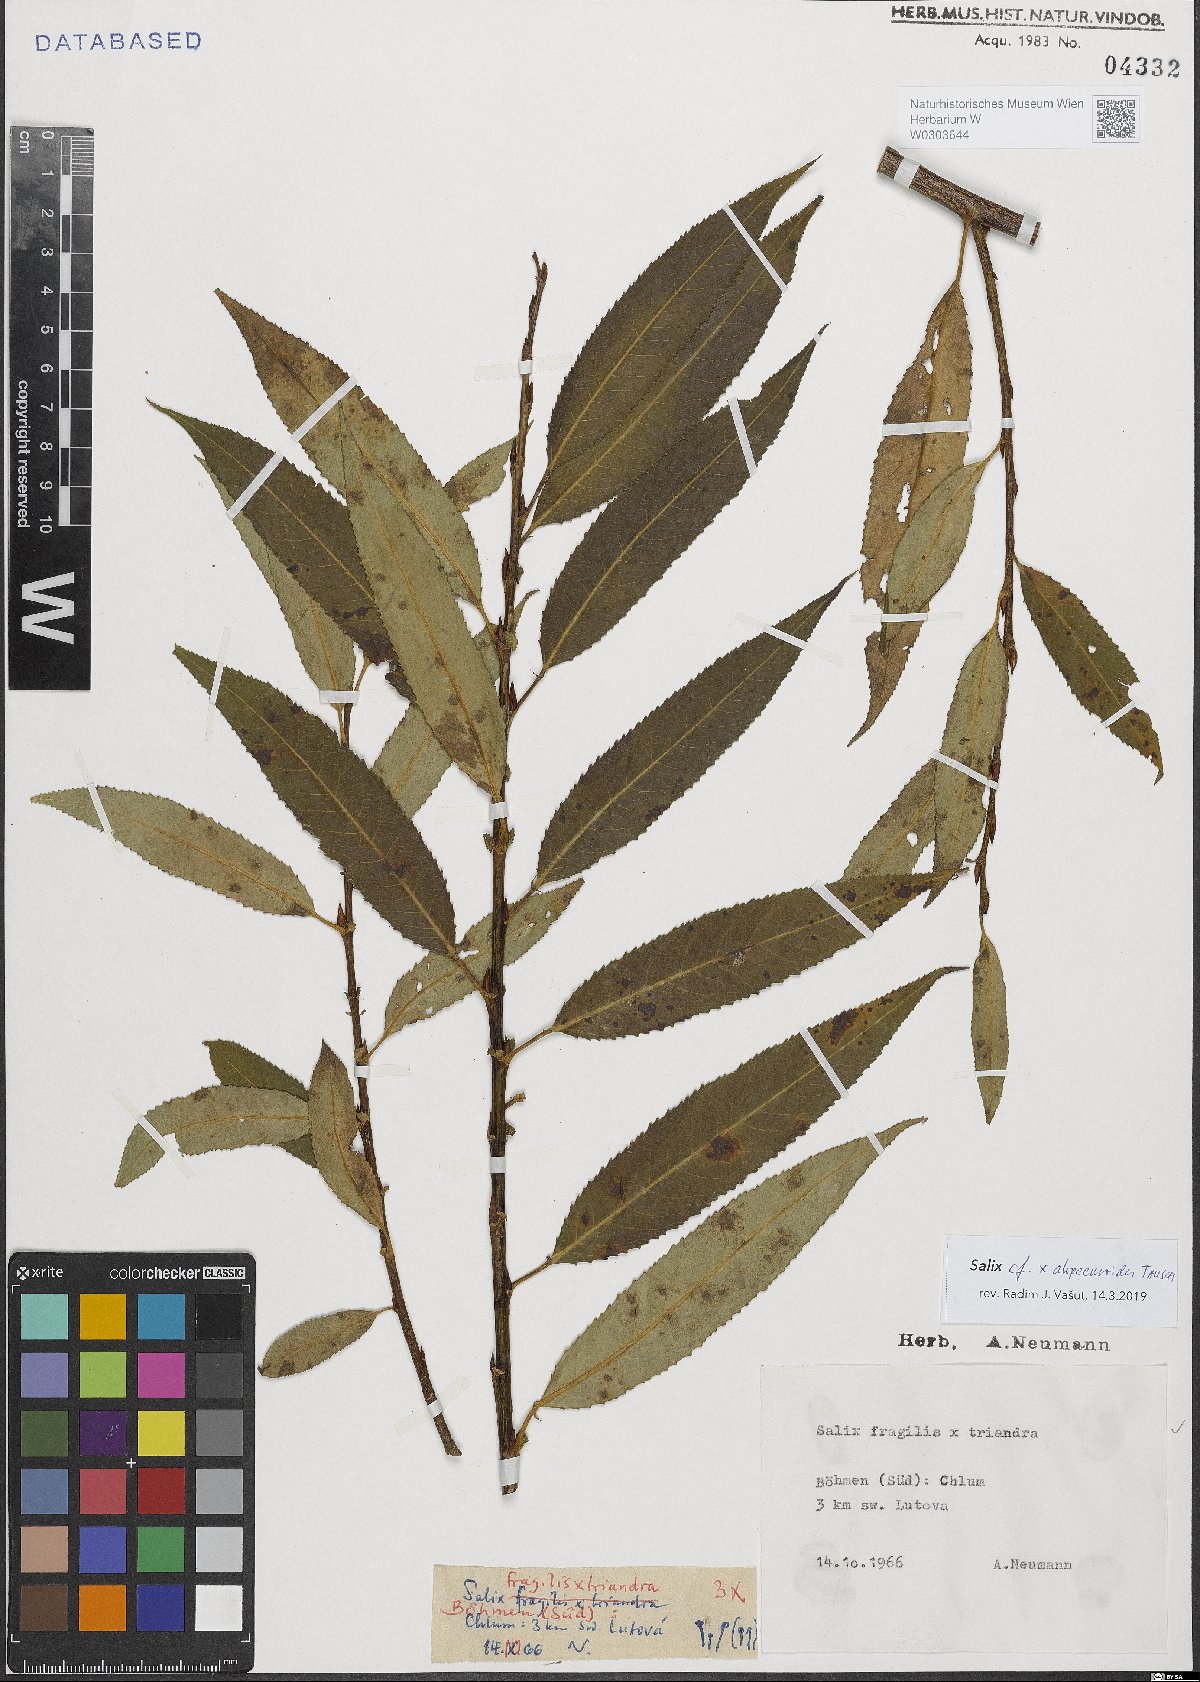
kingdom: Plantae
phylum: Tracheophyta
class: Magnoliopsida
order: Malpighiales
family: Salicaceae
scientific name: Salicaceae
